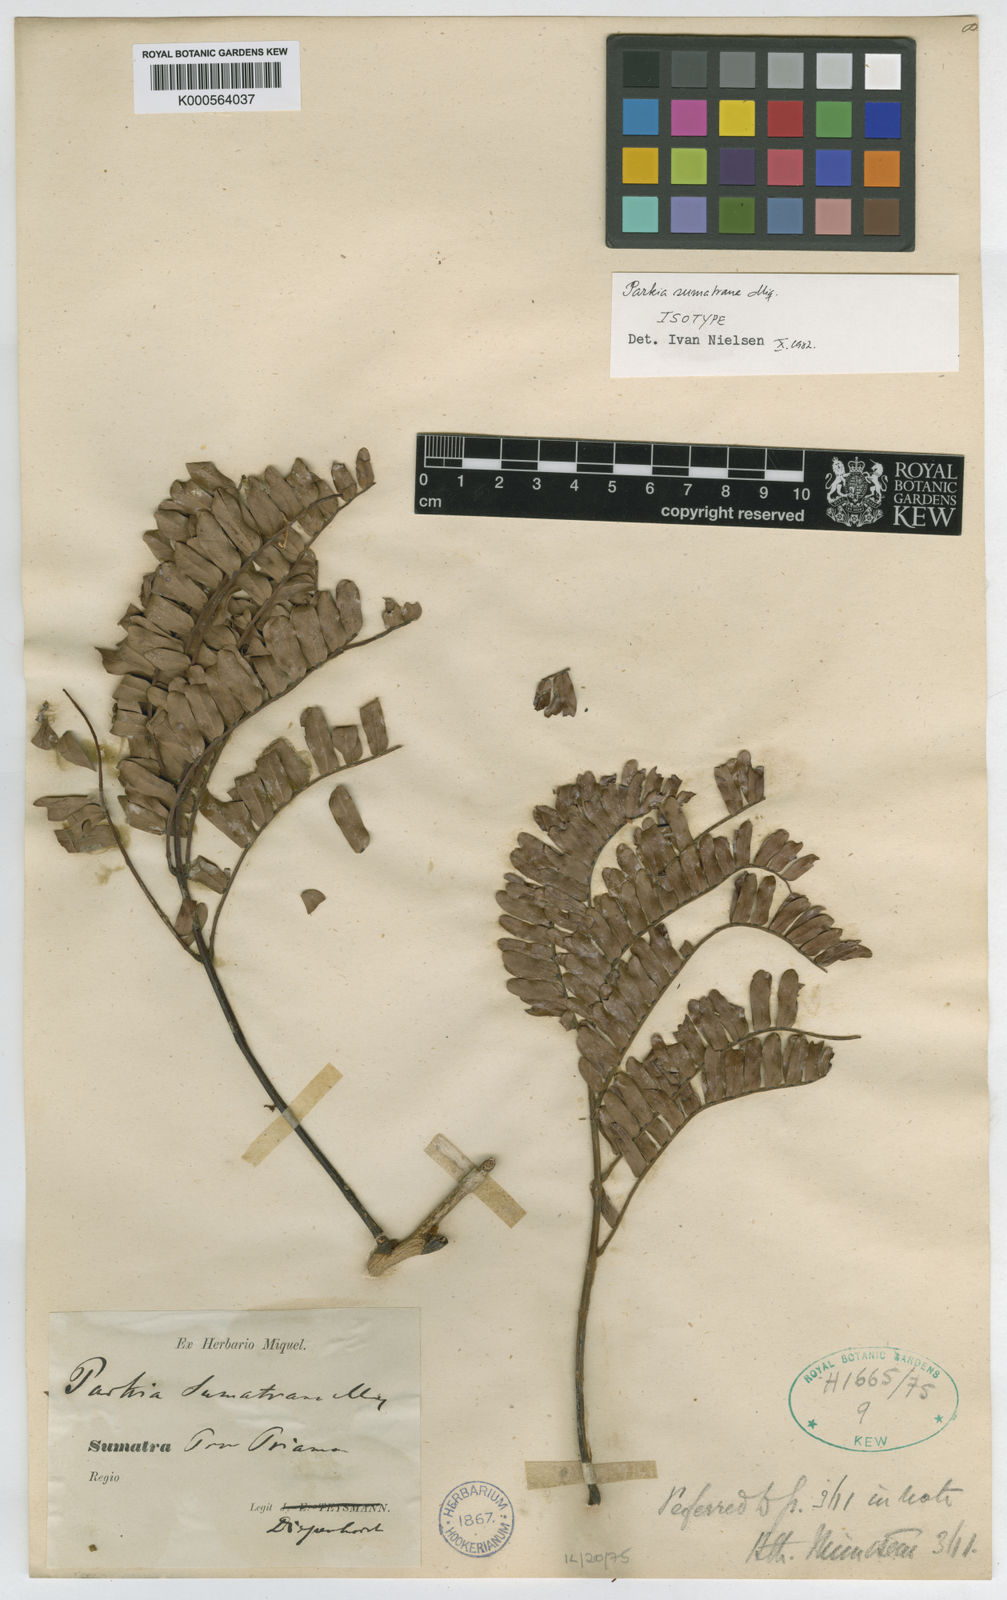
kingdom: Plantae
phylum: Tracheophyta
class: Magnoliopsida
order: Fabales
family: Fabaceae
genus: Parkia
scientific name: Parkia sumatrana
